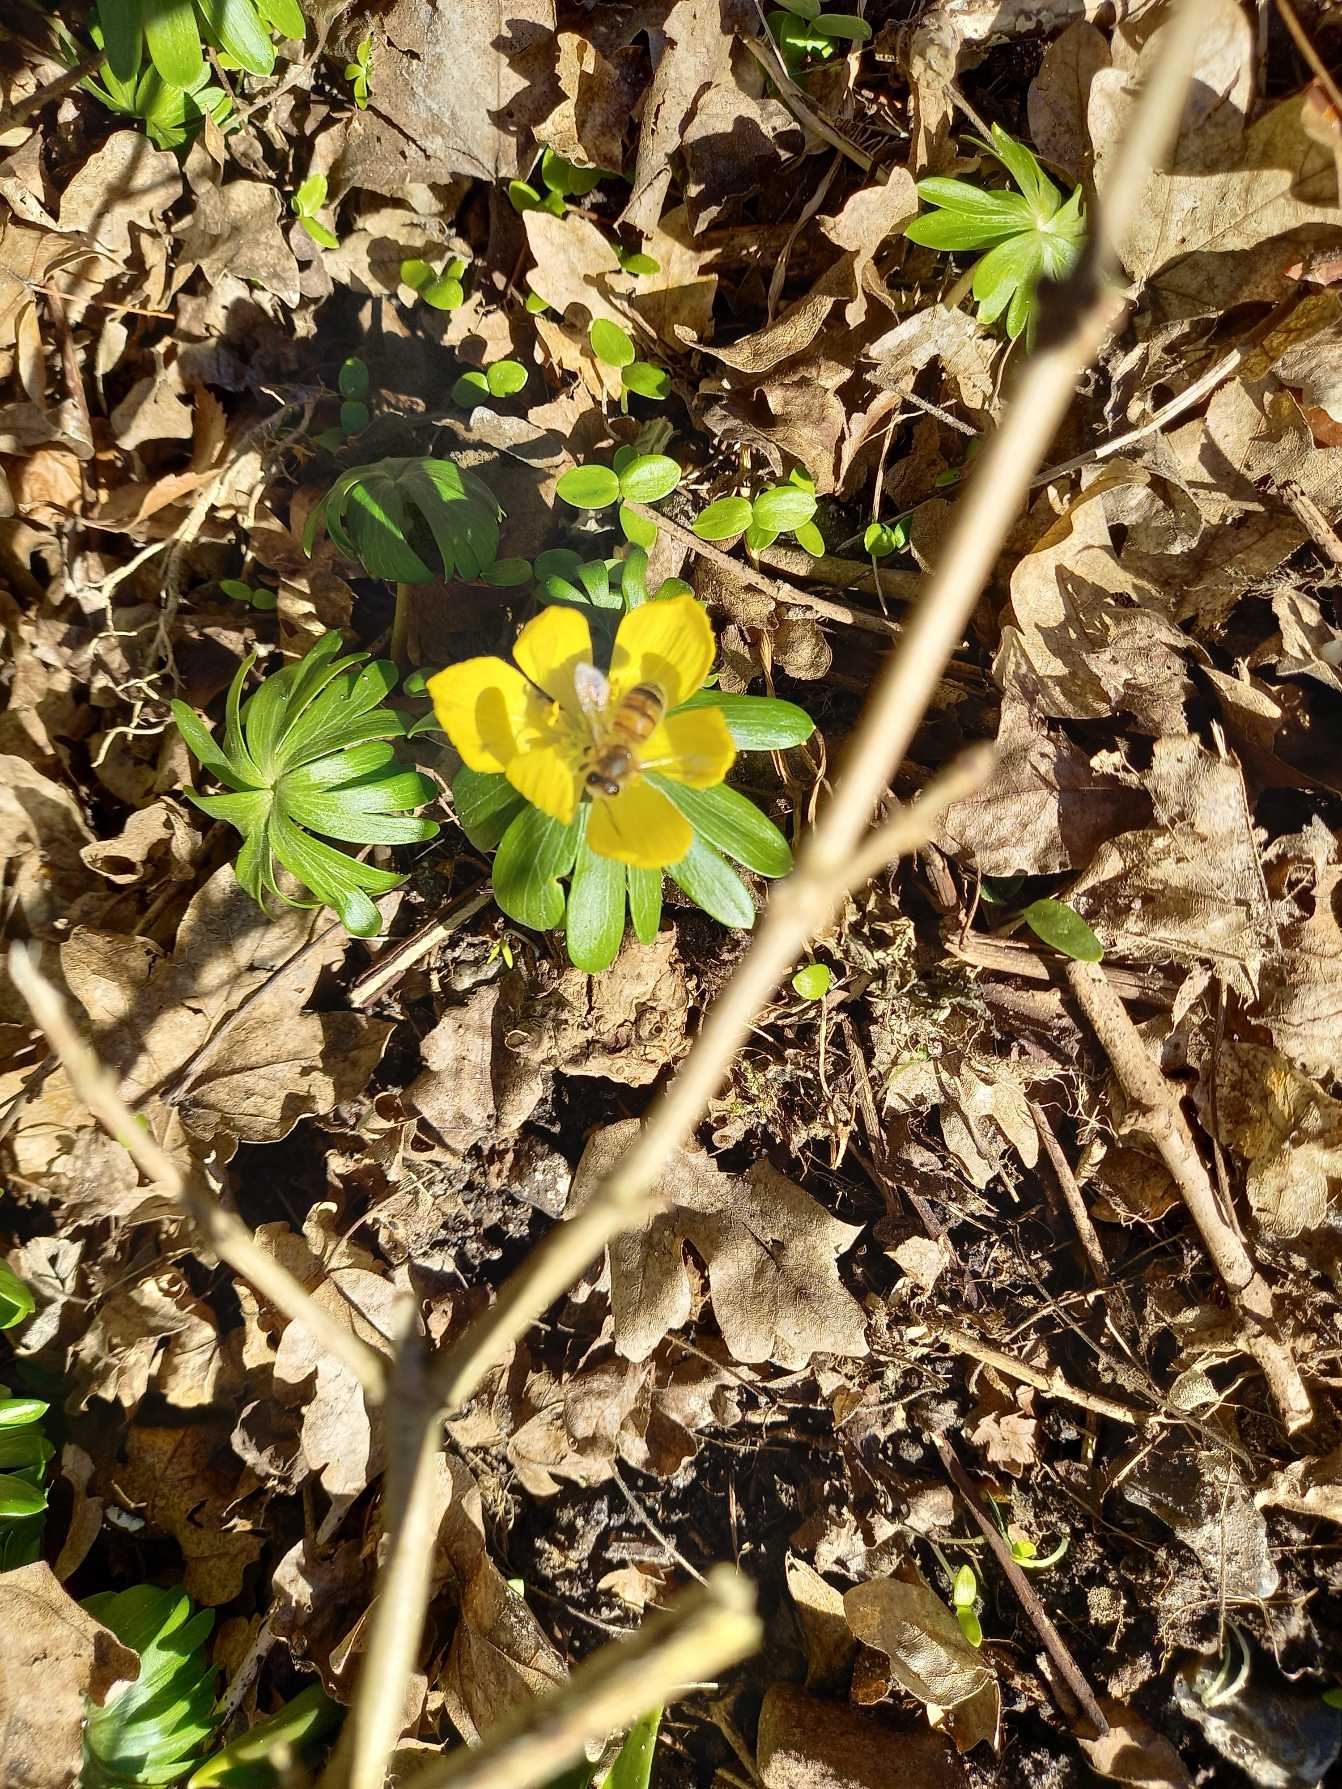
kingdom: Animalia
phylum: Arthropoda
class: Insecta
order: Hymenoptera
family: Apidae
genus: Apis
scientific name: Apis mellifera
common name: Honningbi
